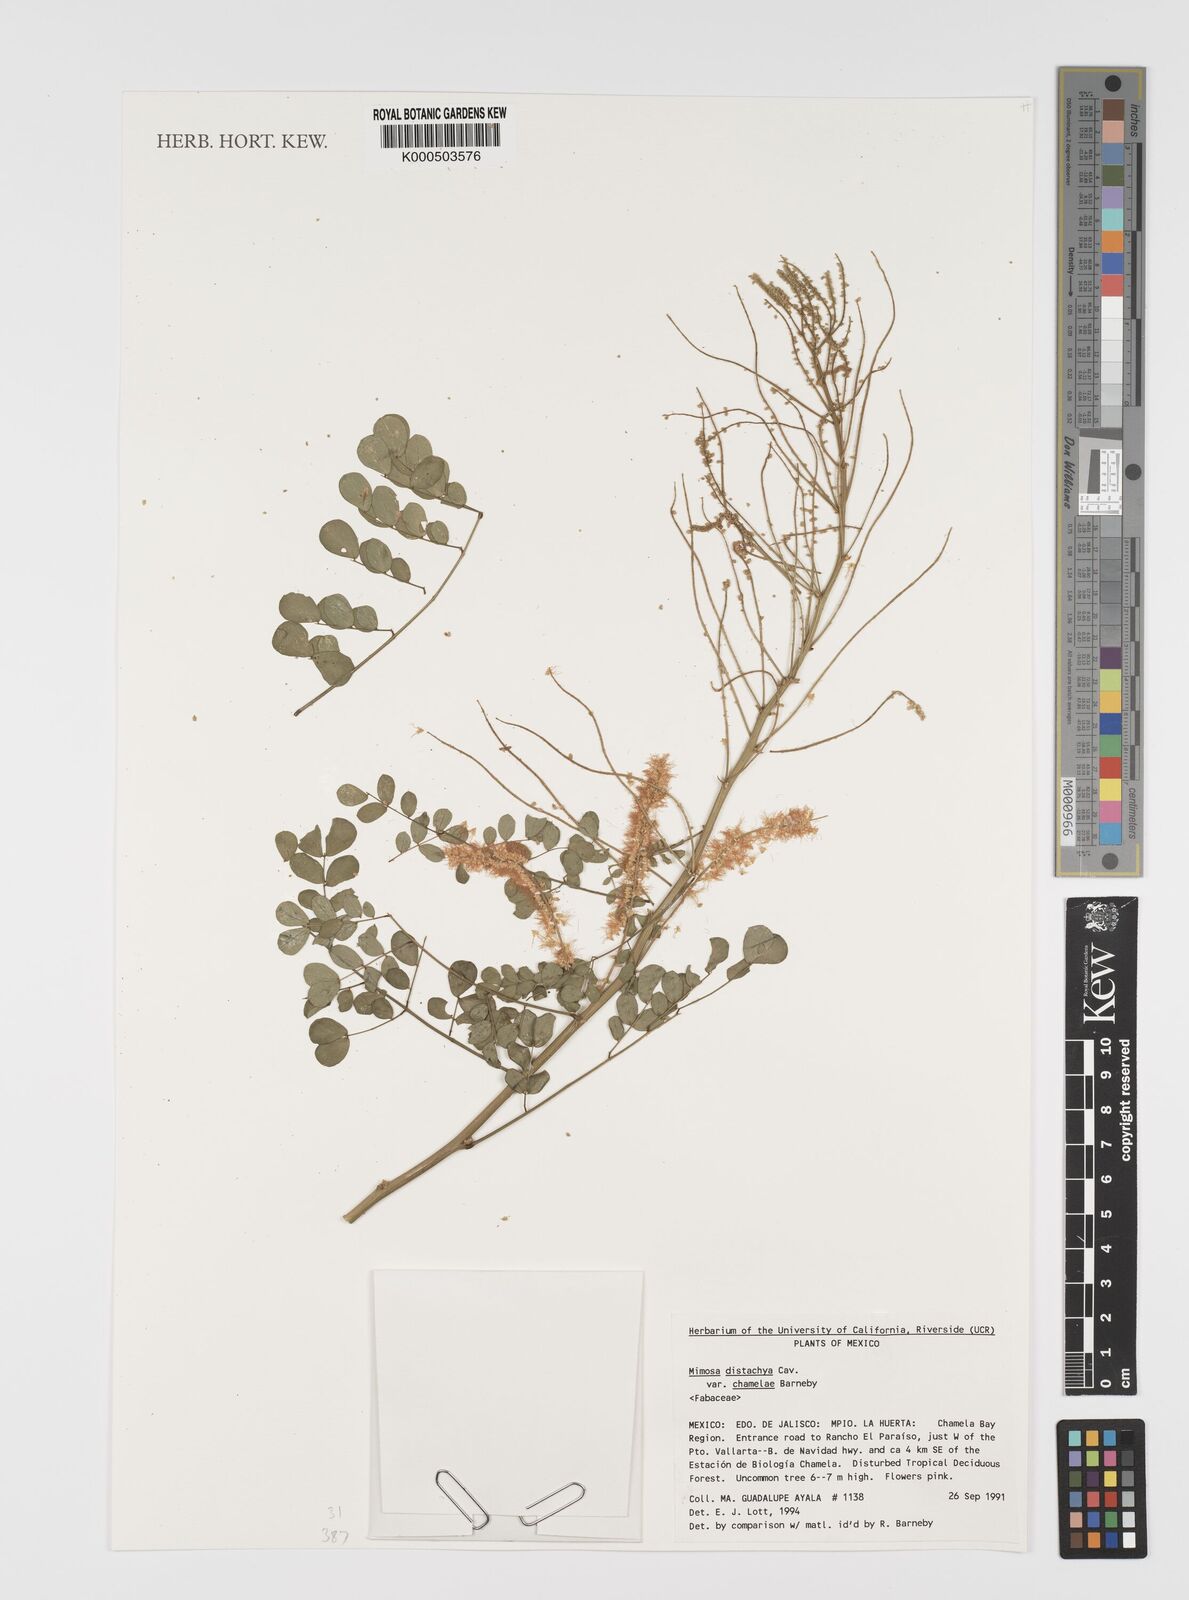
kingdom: Plantae
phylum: Tracheophyta
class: Magnoliopsida
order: Fabales
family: Fabaceae
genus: Mimosa
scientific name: Mimosa distachya
